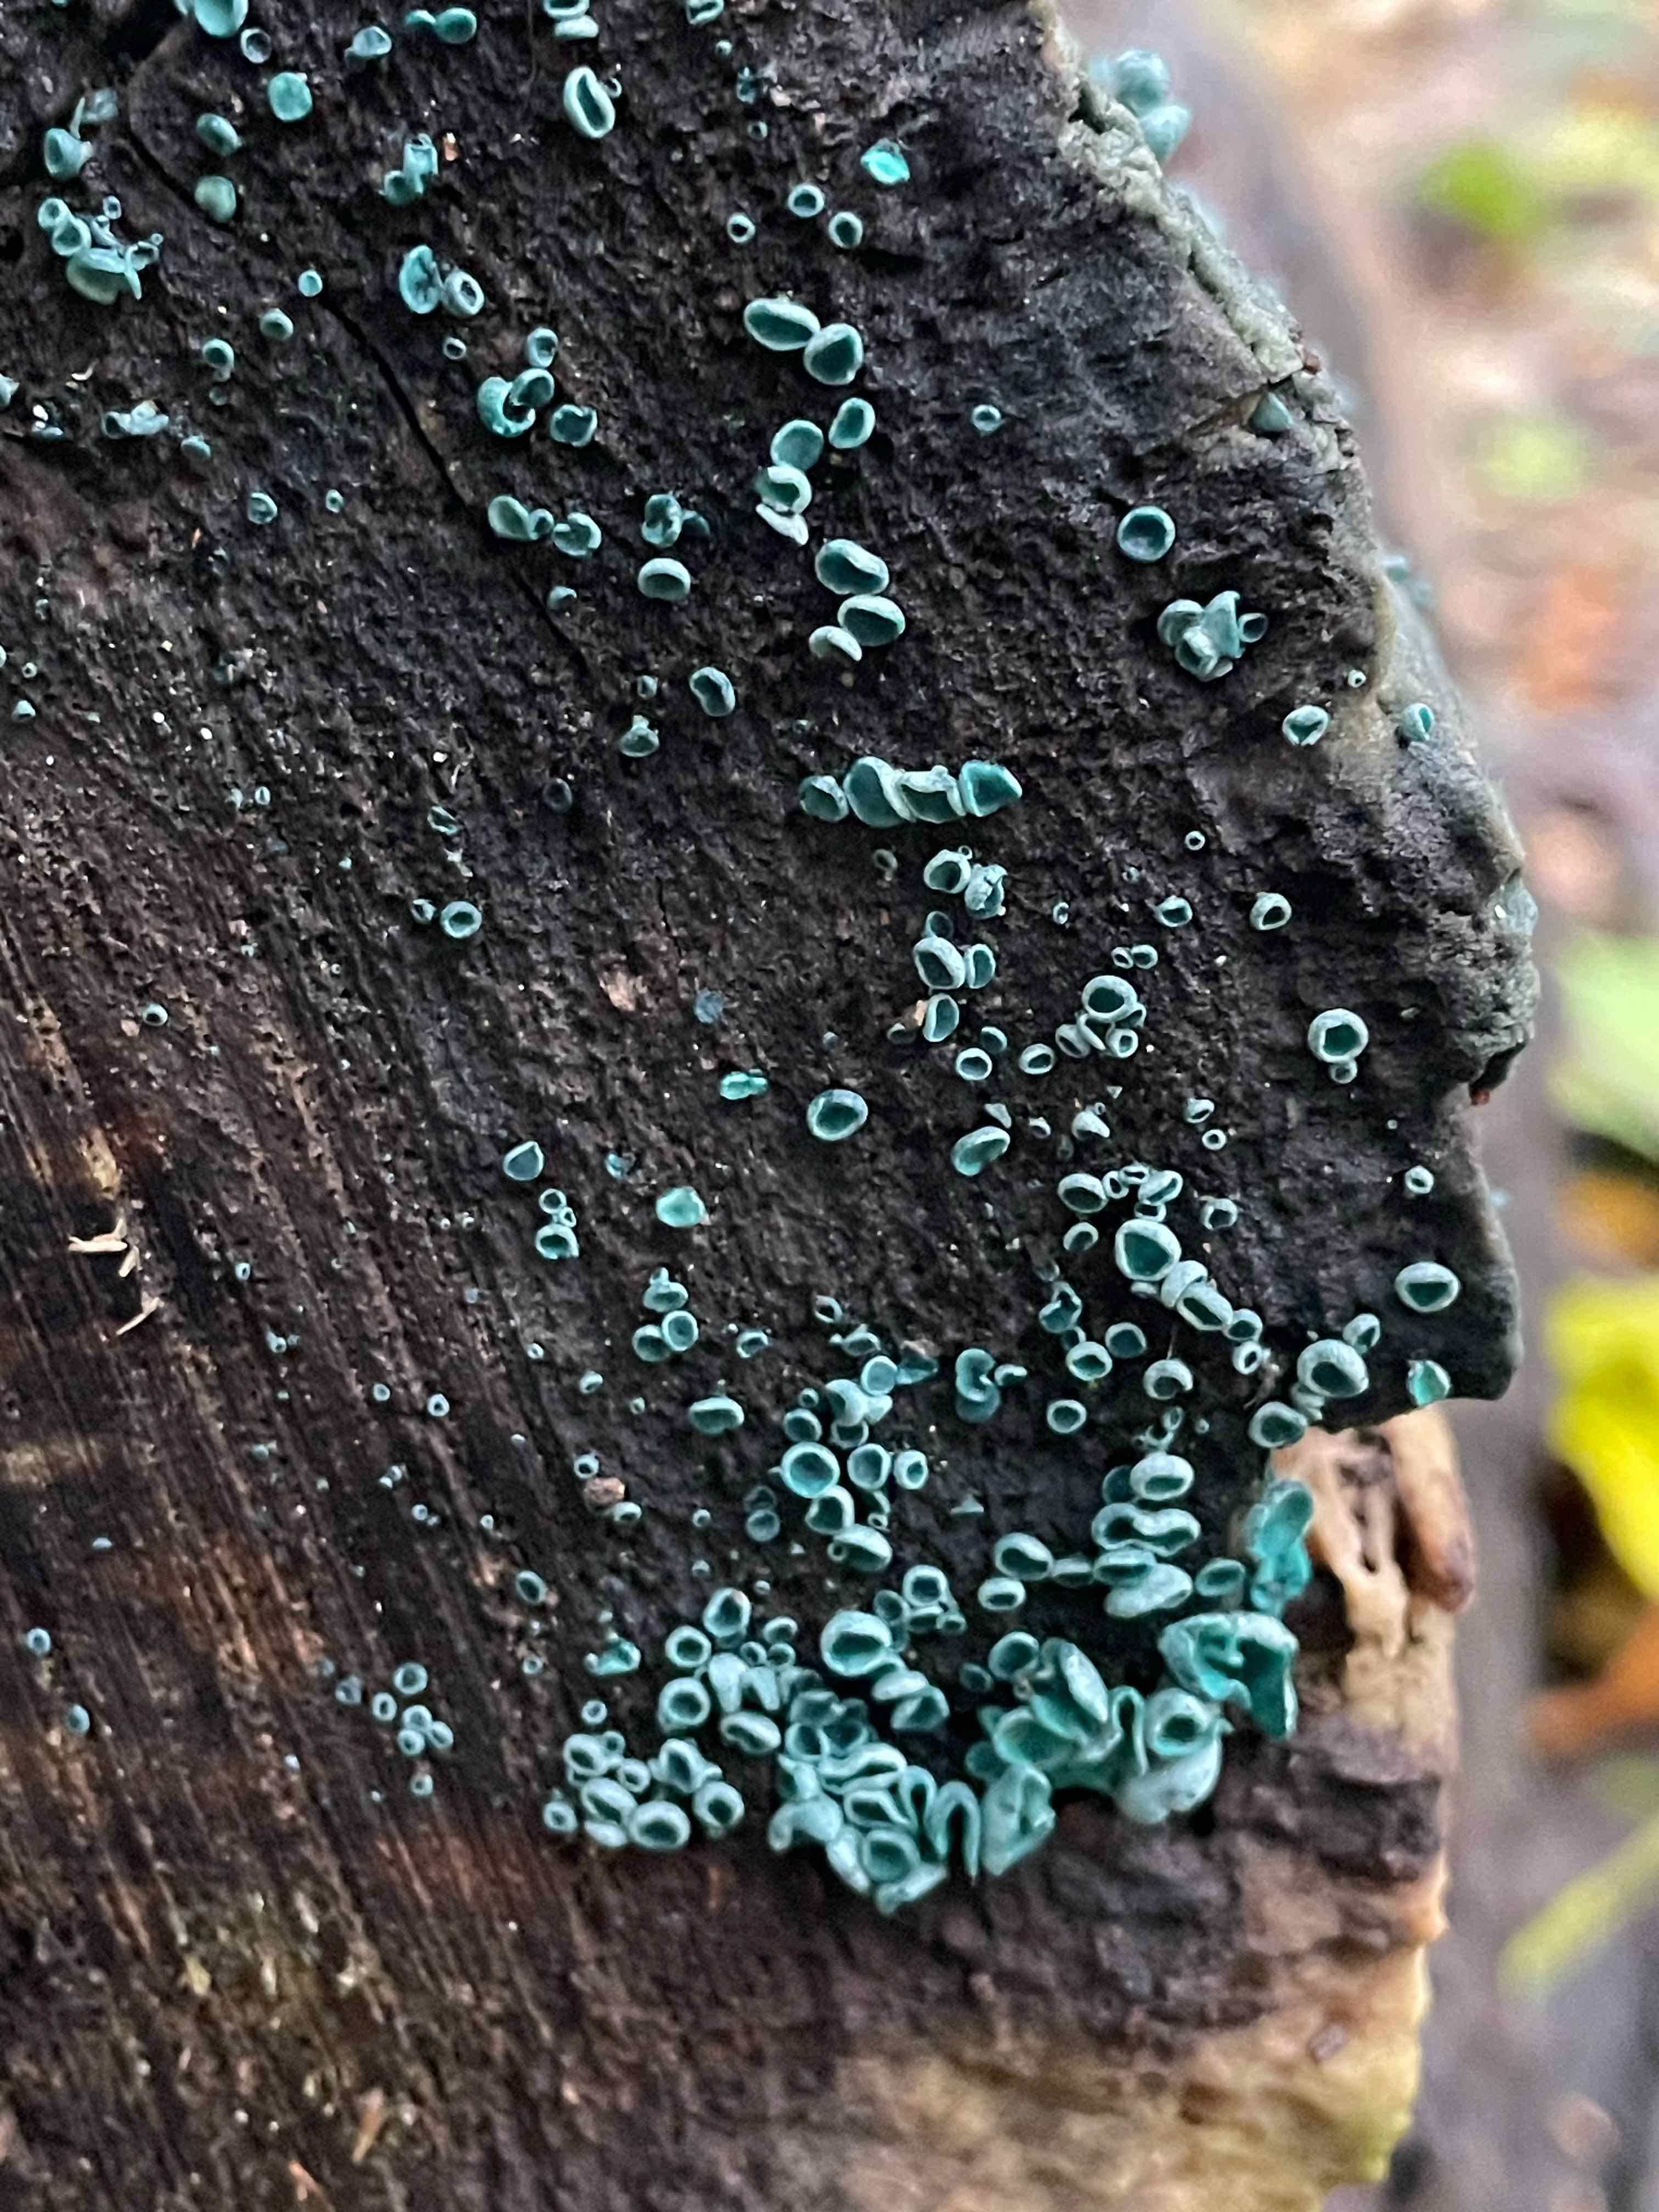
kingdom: Fungi
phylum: Ascomycota
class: Leotiomycetes
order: Helotiales
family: Chlorociboriaceae
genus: Chlorociboria
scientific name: Chlorociboria aeruginascens
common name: almindelig grønskive
